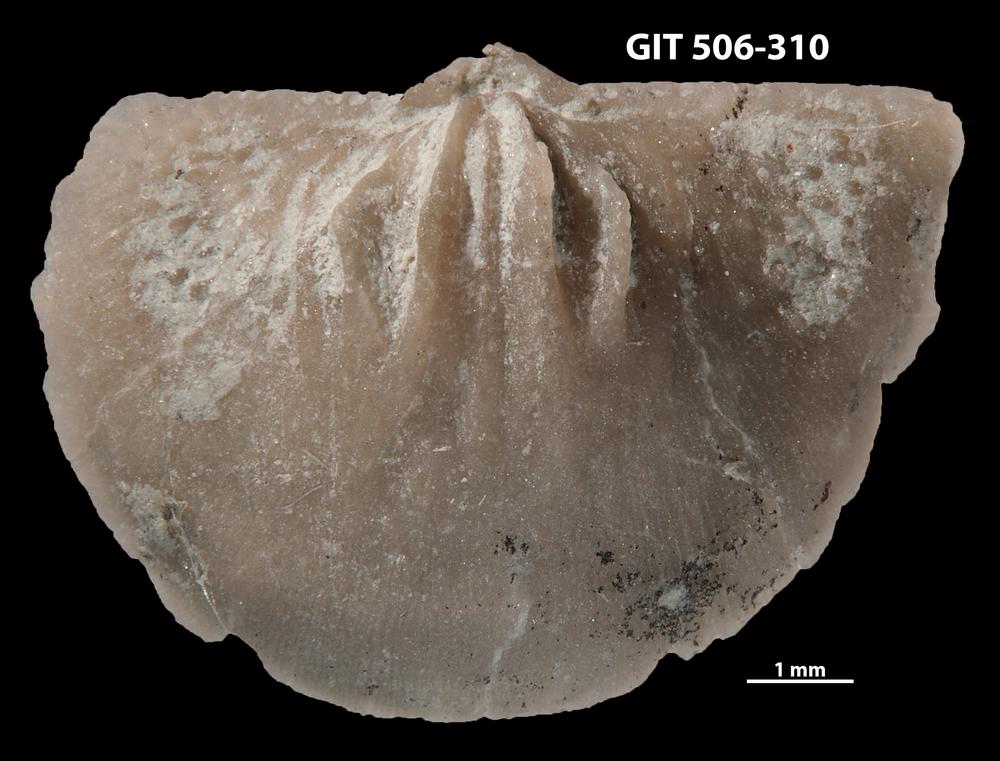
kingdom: Animalia
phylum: Brachiopoda
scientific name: Brachiopoda
